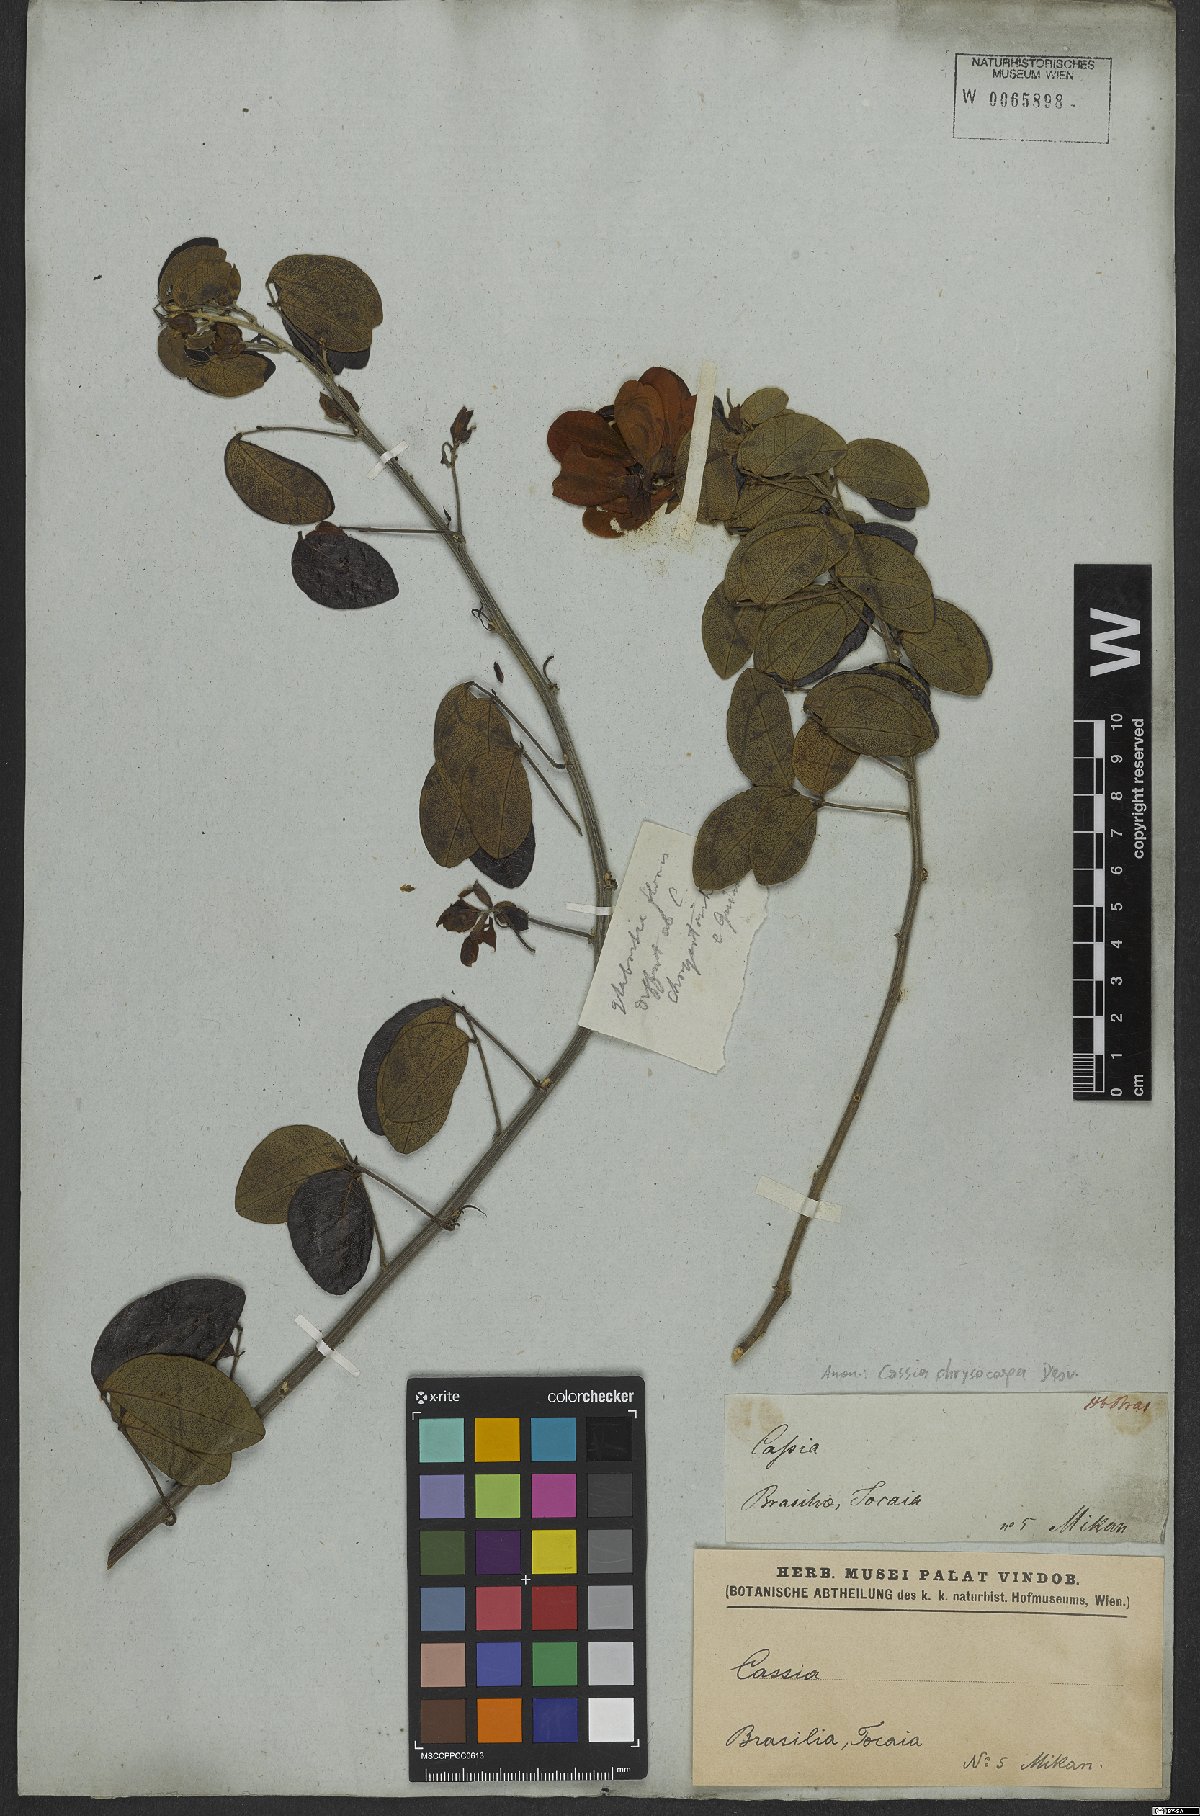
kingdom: Plantae
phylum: Tracheophyta
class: Magnoliopsida
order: Fabales
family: Fabaceae
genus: Senna
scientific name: Senna chrysocarpa
